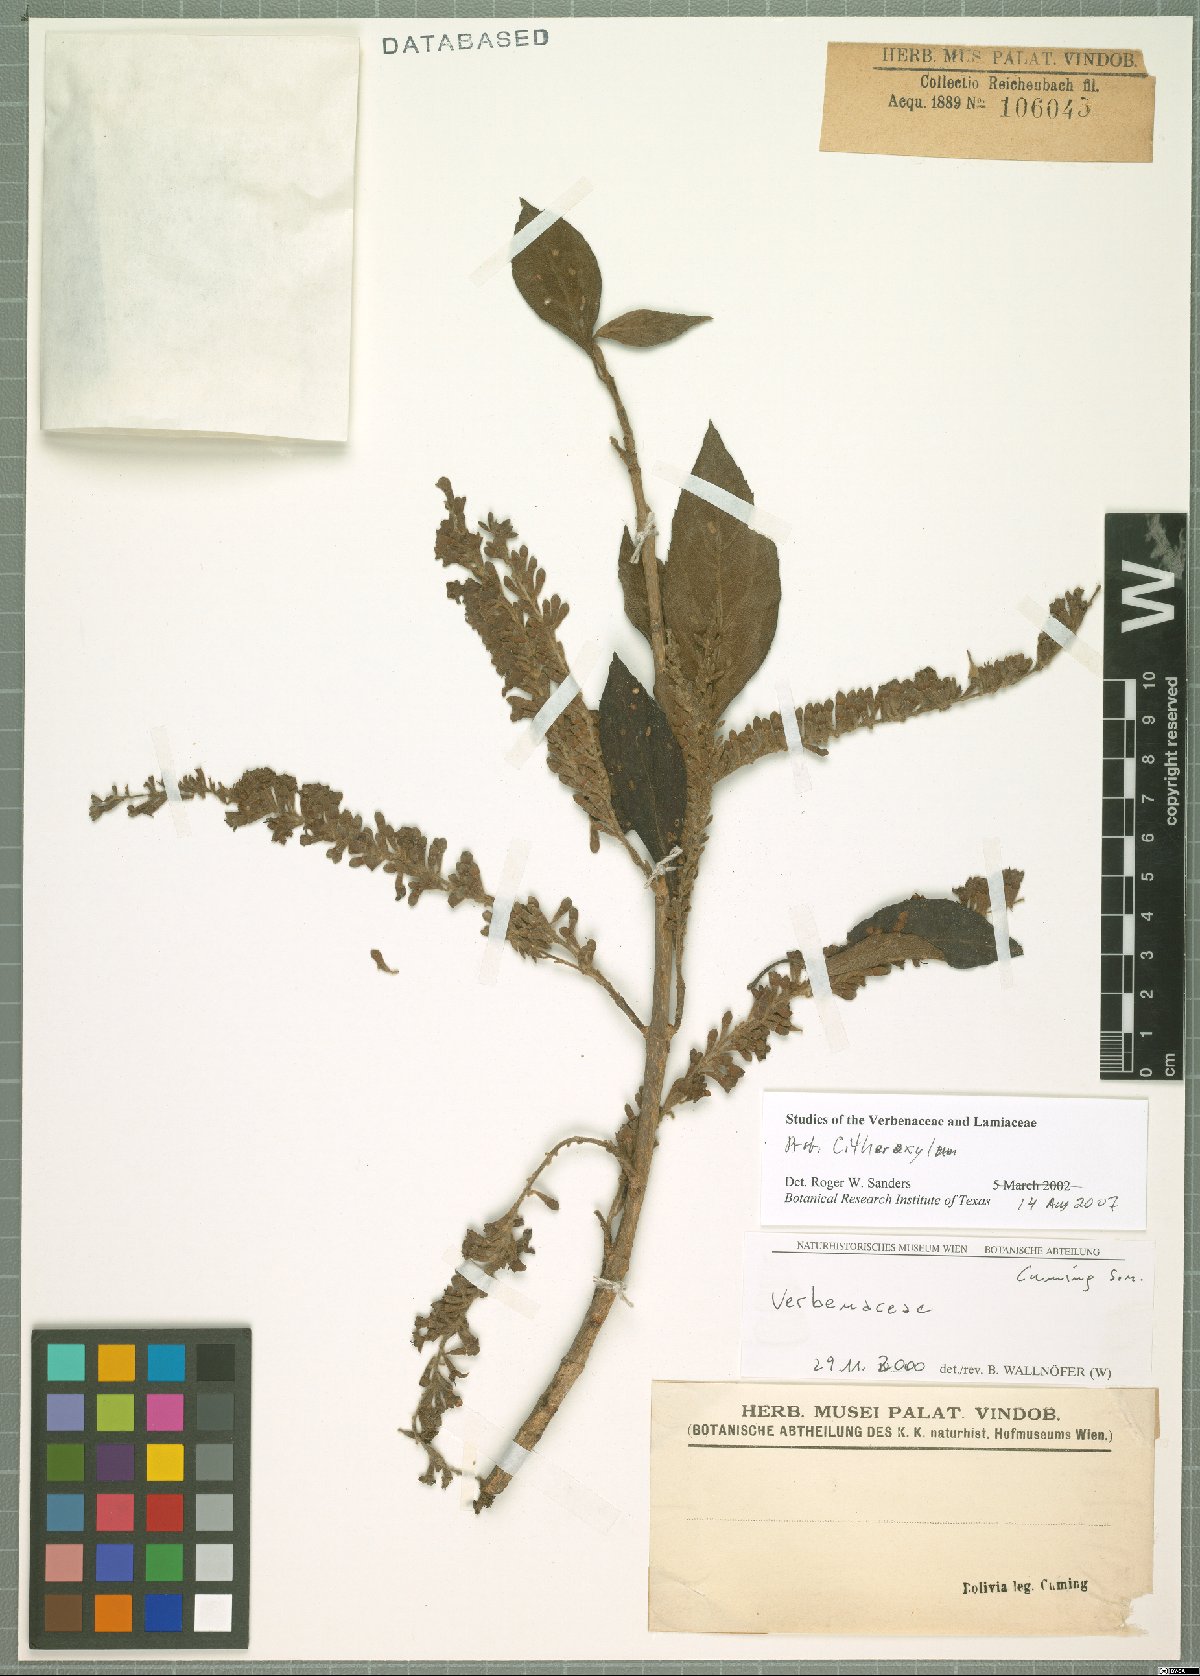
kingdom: Plantae
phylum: Tracheophyta
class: Magnoliopsida
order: Lamiales
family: Verbenaceae
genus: Citharexylum
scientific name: Citharexylum
